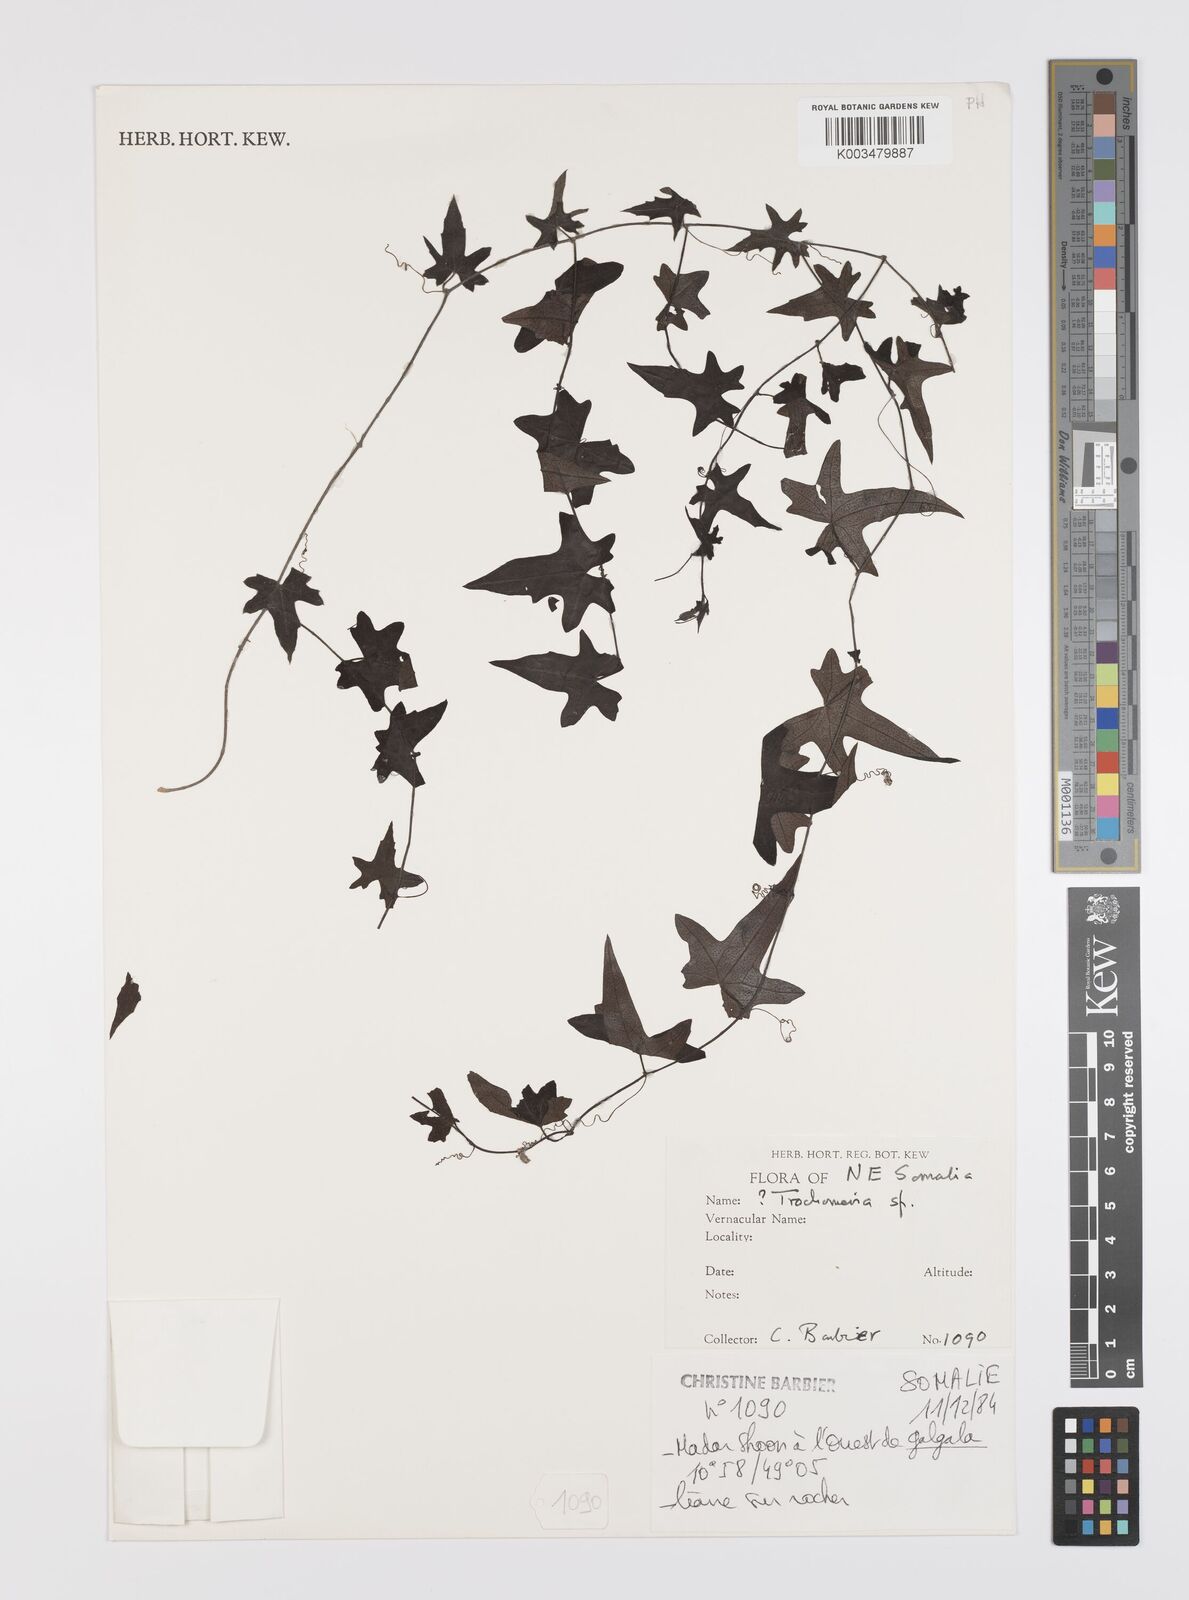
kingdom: Plantae
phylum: Tracheophyta
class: Magnoliopsida
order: Cucurbitales
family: Cucurbitaceae
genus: Trochomeria
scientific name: Trochomeria
